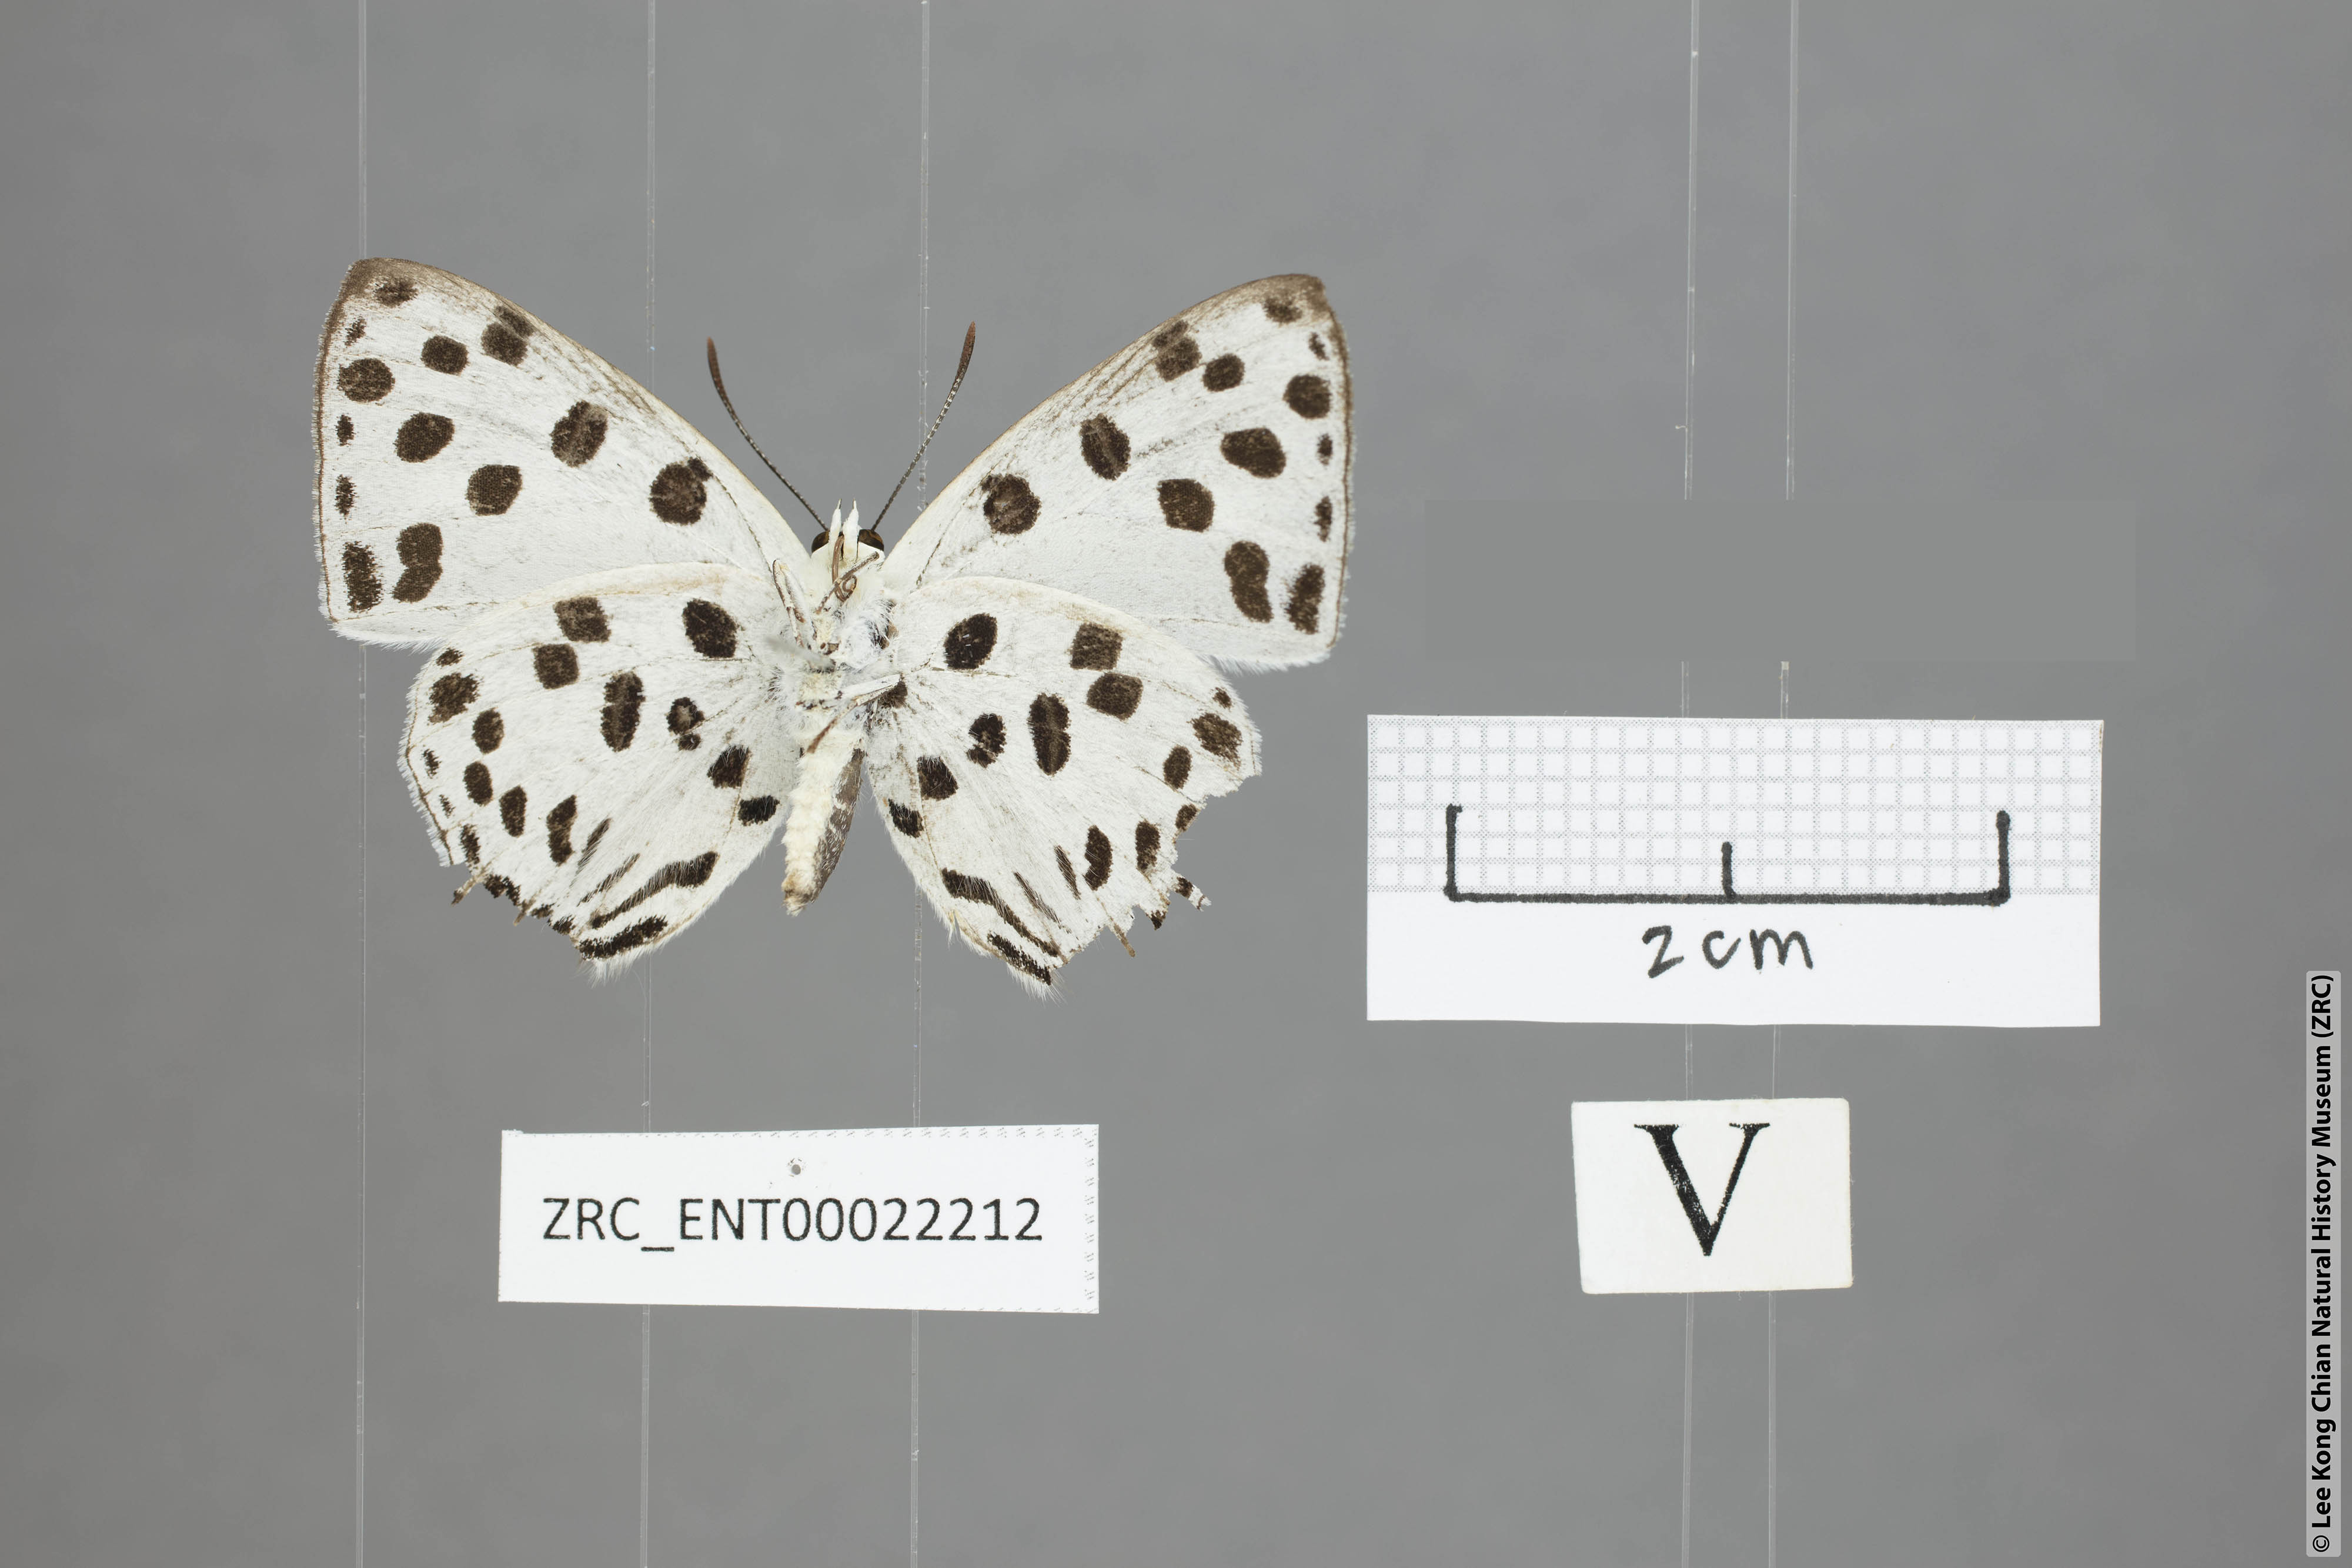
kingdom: Animalia
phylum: Arthropoda
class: Insecta
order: Lepidoptera
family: Lycaenidae
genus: Tajuria
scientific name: Tajuria maculatus
